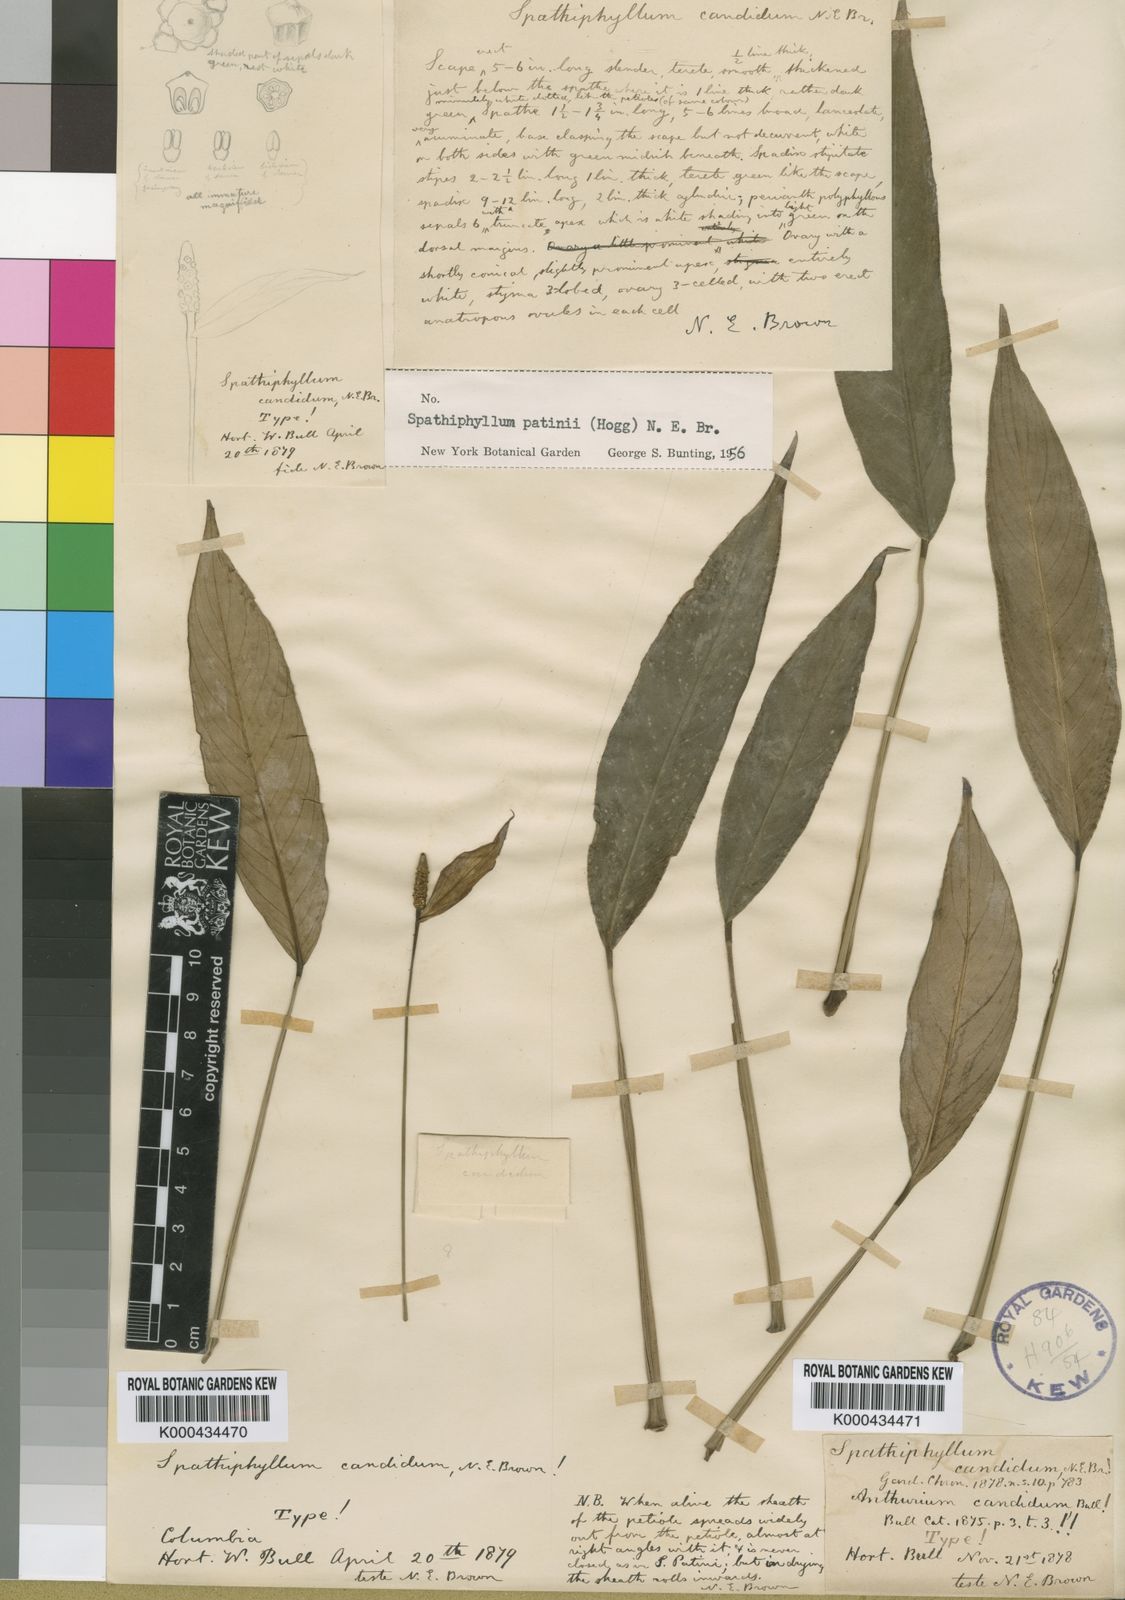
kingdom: Plantae
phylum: Tracheophyta
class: Liliopsida
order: Alismatales
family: Araceae
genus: Spathiphyllum
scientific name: Spathiphyllum patinii
